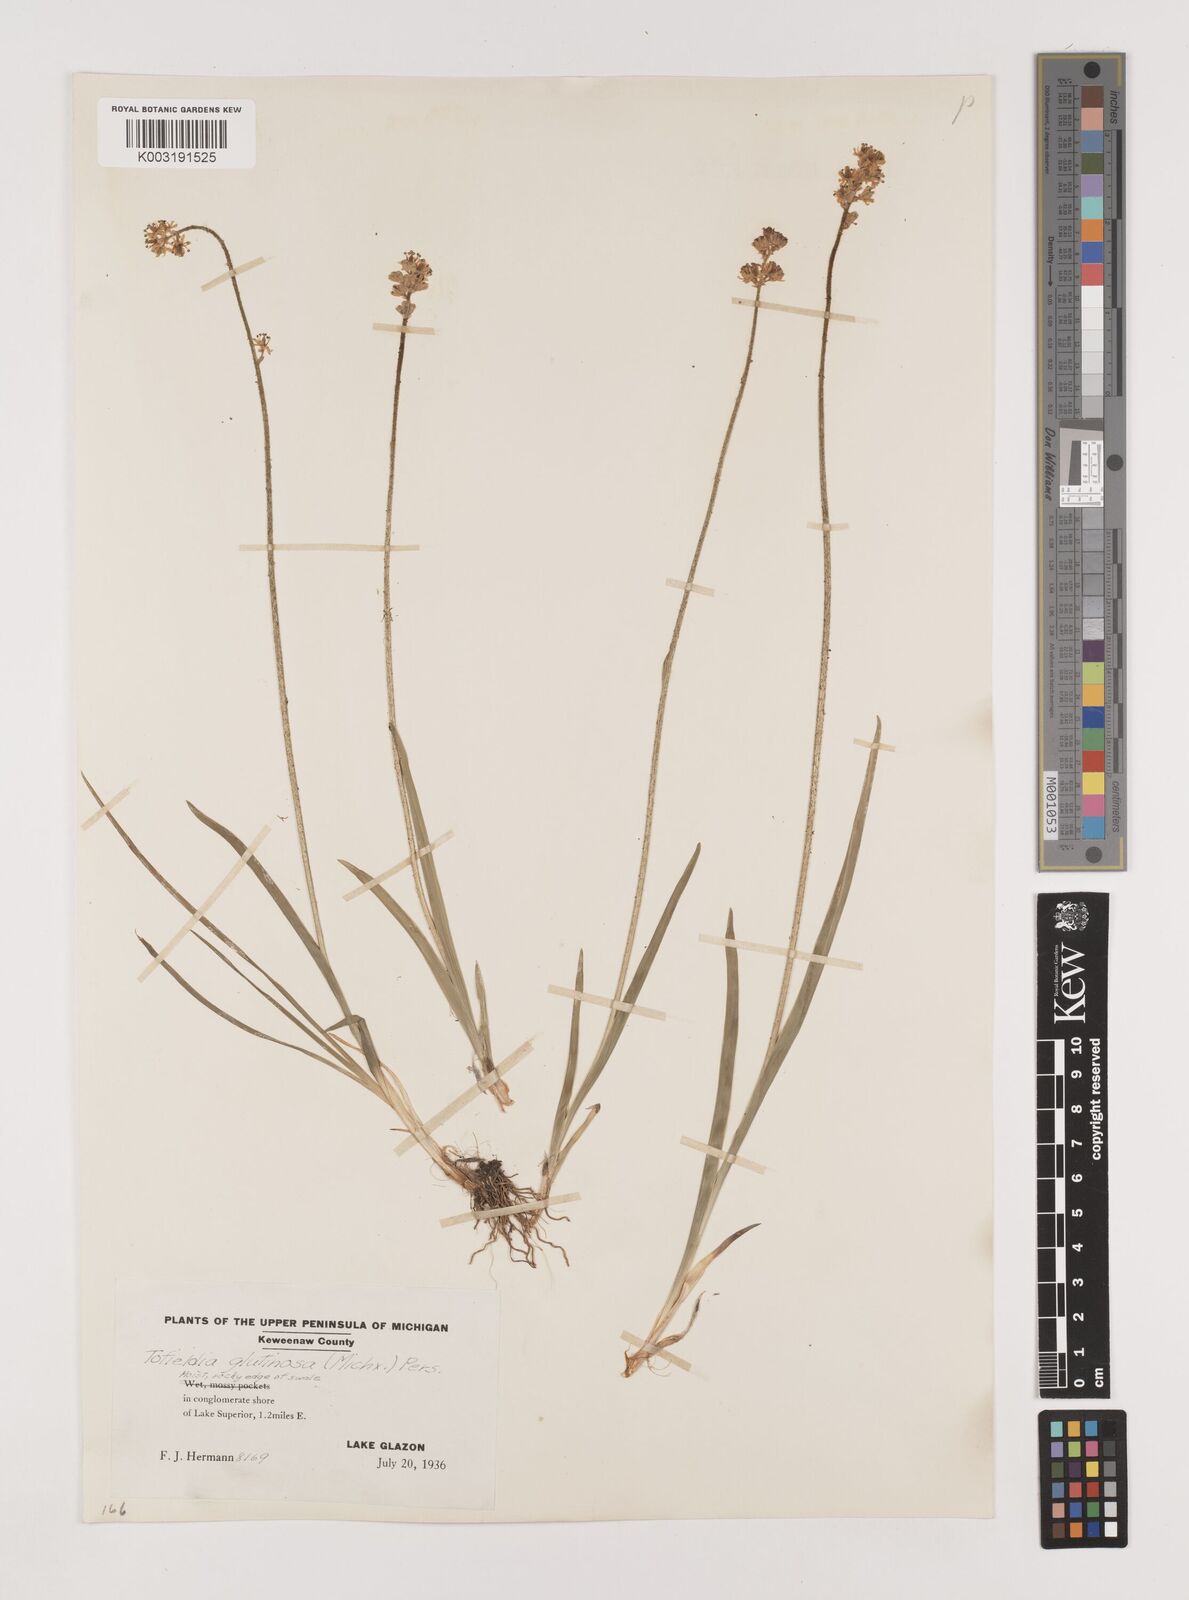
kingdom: Plantae
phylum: Tracheophyta
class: Liliopsida
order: Alismatales
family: Tofieldiaceae
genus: Triantha
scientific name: Triantha glutinosa
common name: Glutinous tofieldia
